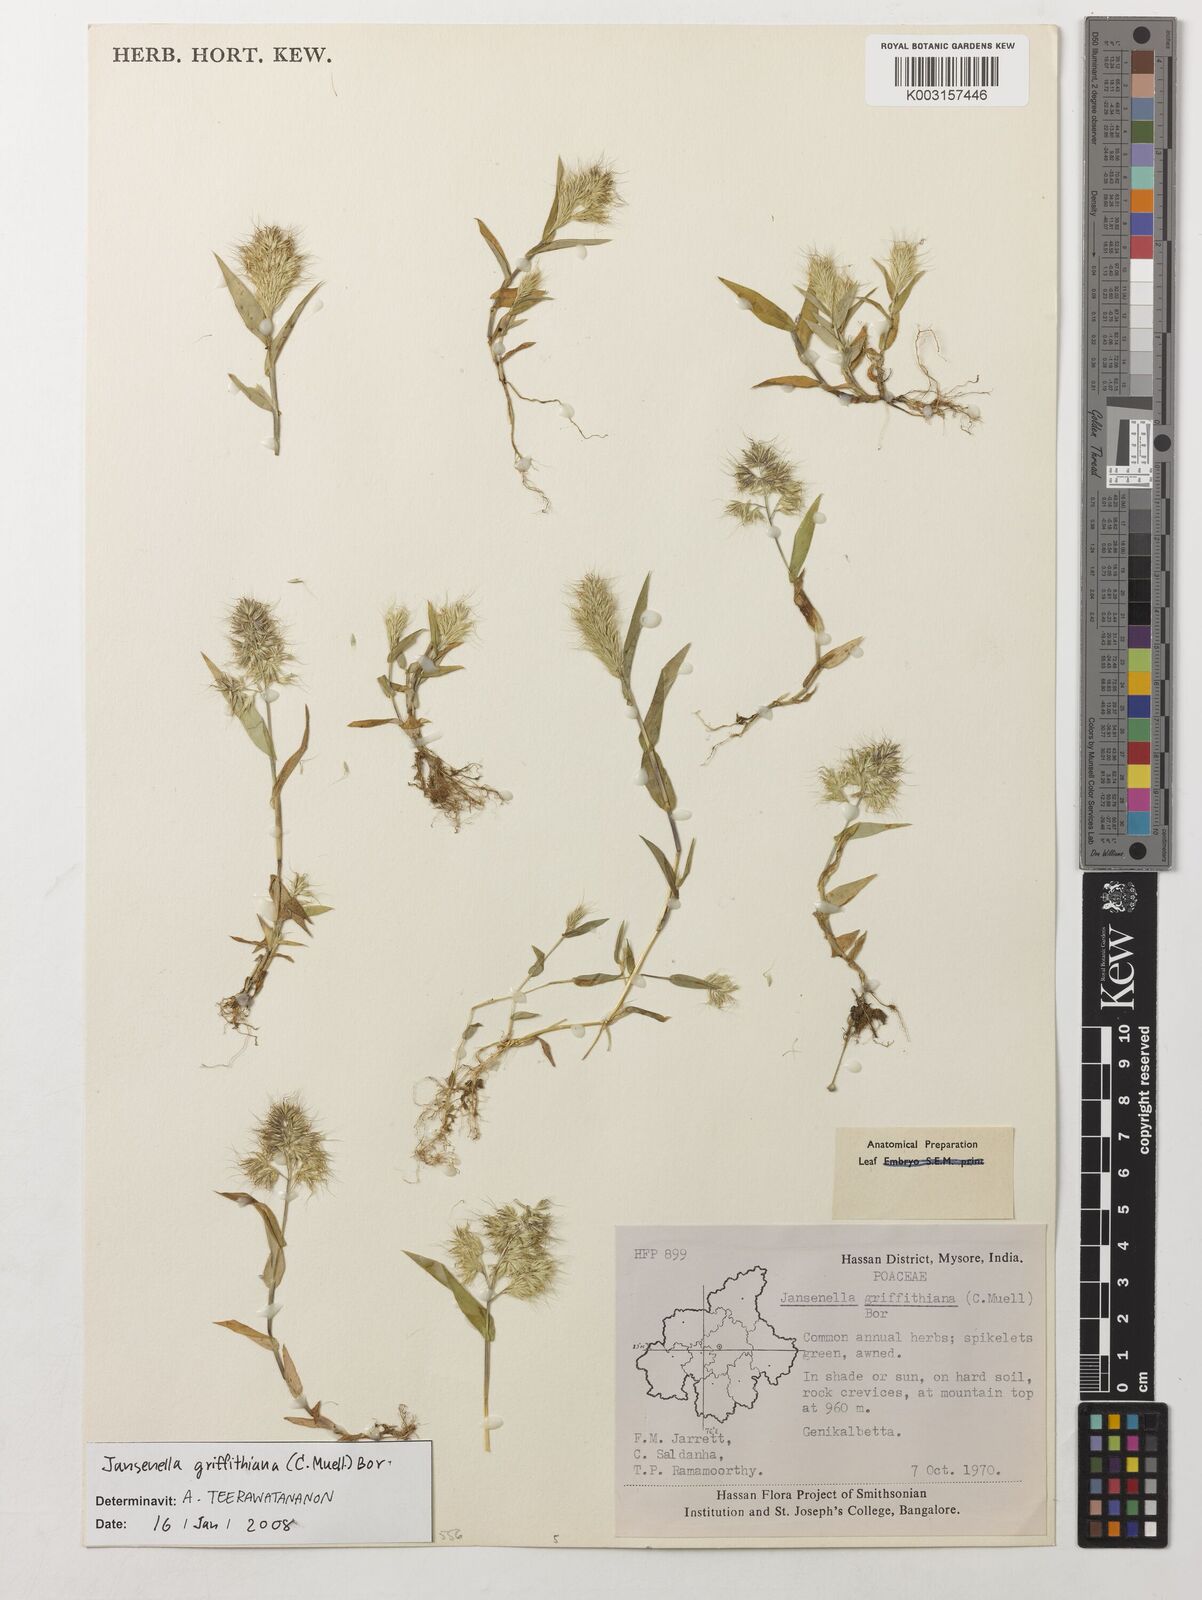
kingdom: Plantae
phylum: Tracheophyta
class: Liliopsida
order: Poales
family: Poaceae
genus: Jansenella
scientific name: Jansenella griffithiana
